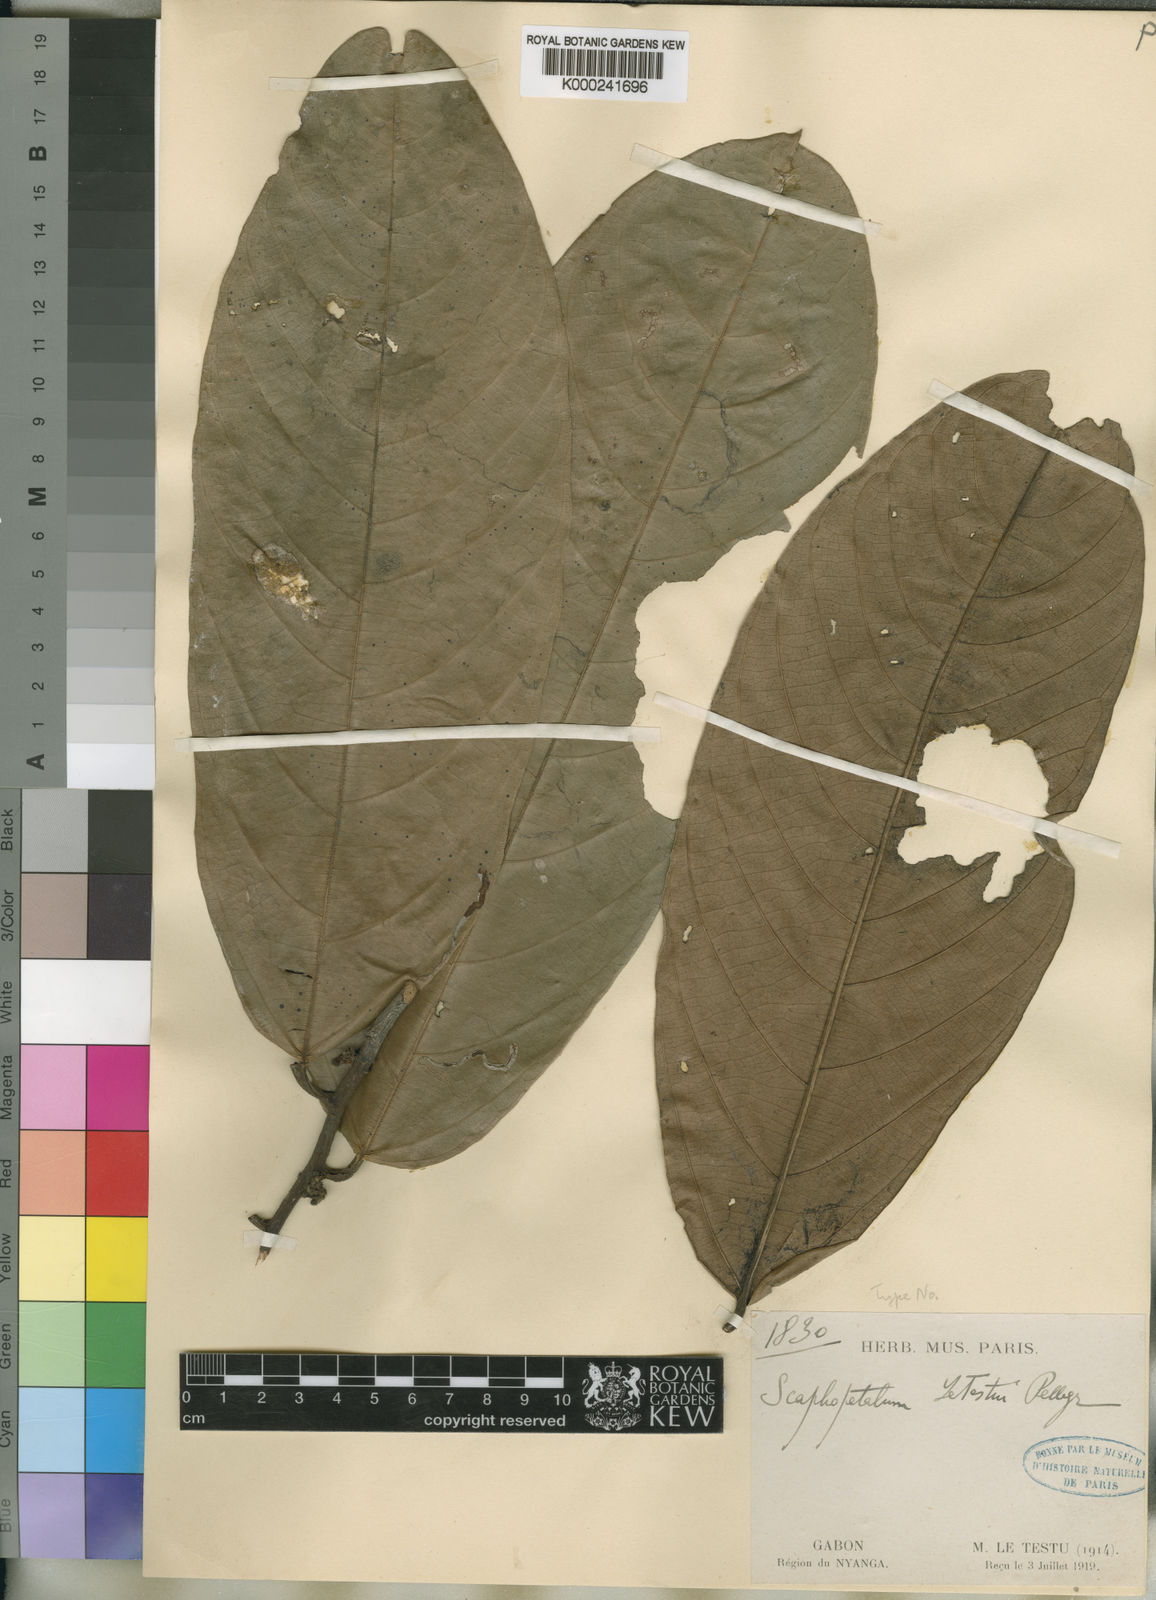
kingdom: Plantae
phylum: Tracheophyta
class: Magnoliopsida
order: Malvales
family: Malvaceae
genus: Leptonychia
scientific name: Leptonychia
